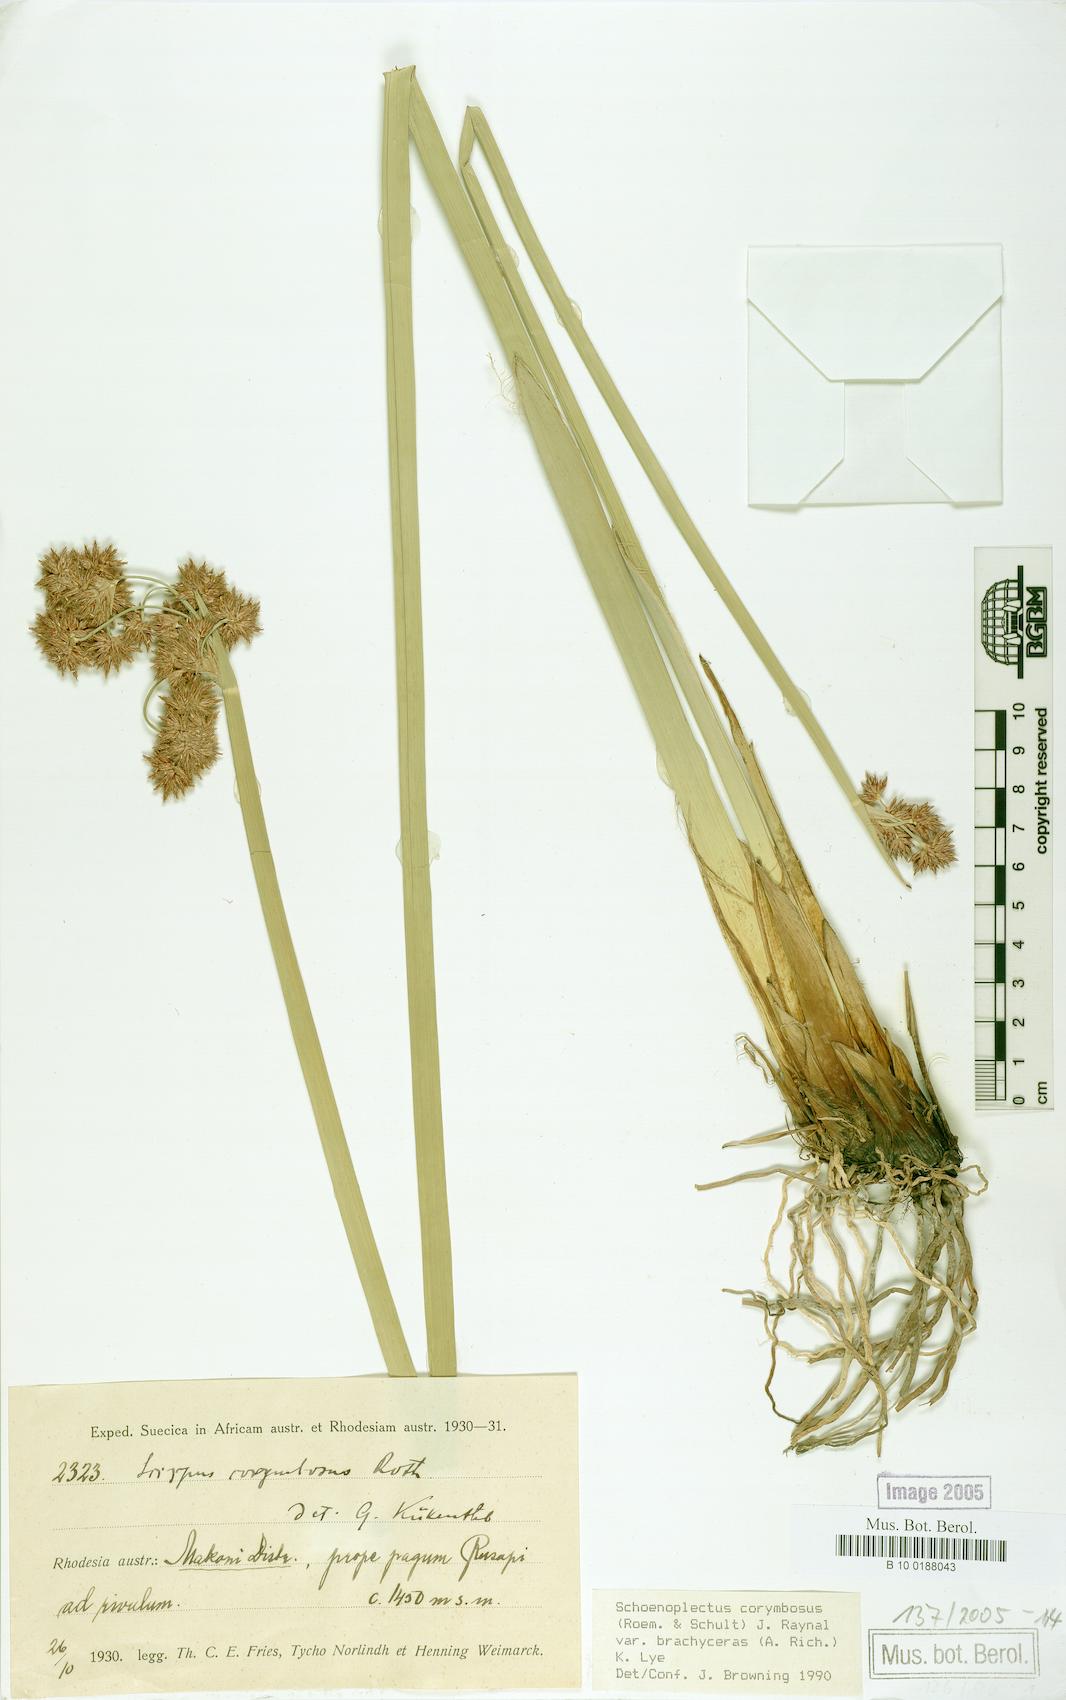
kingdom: Plantae
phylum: Tracheophyta
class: Liliopsida
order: Poales
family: Cyperaceae
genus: Scirpus
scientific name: Scirpus corymbosus
